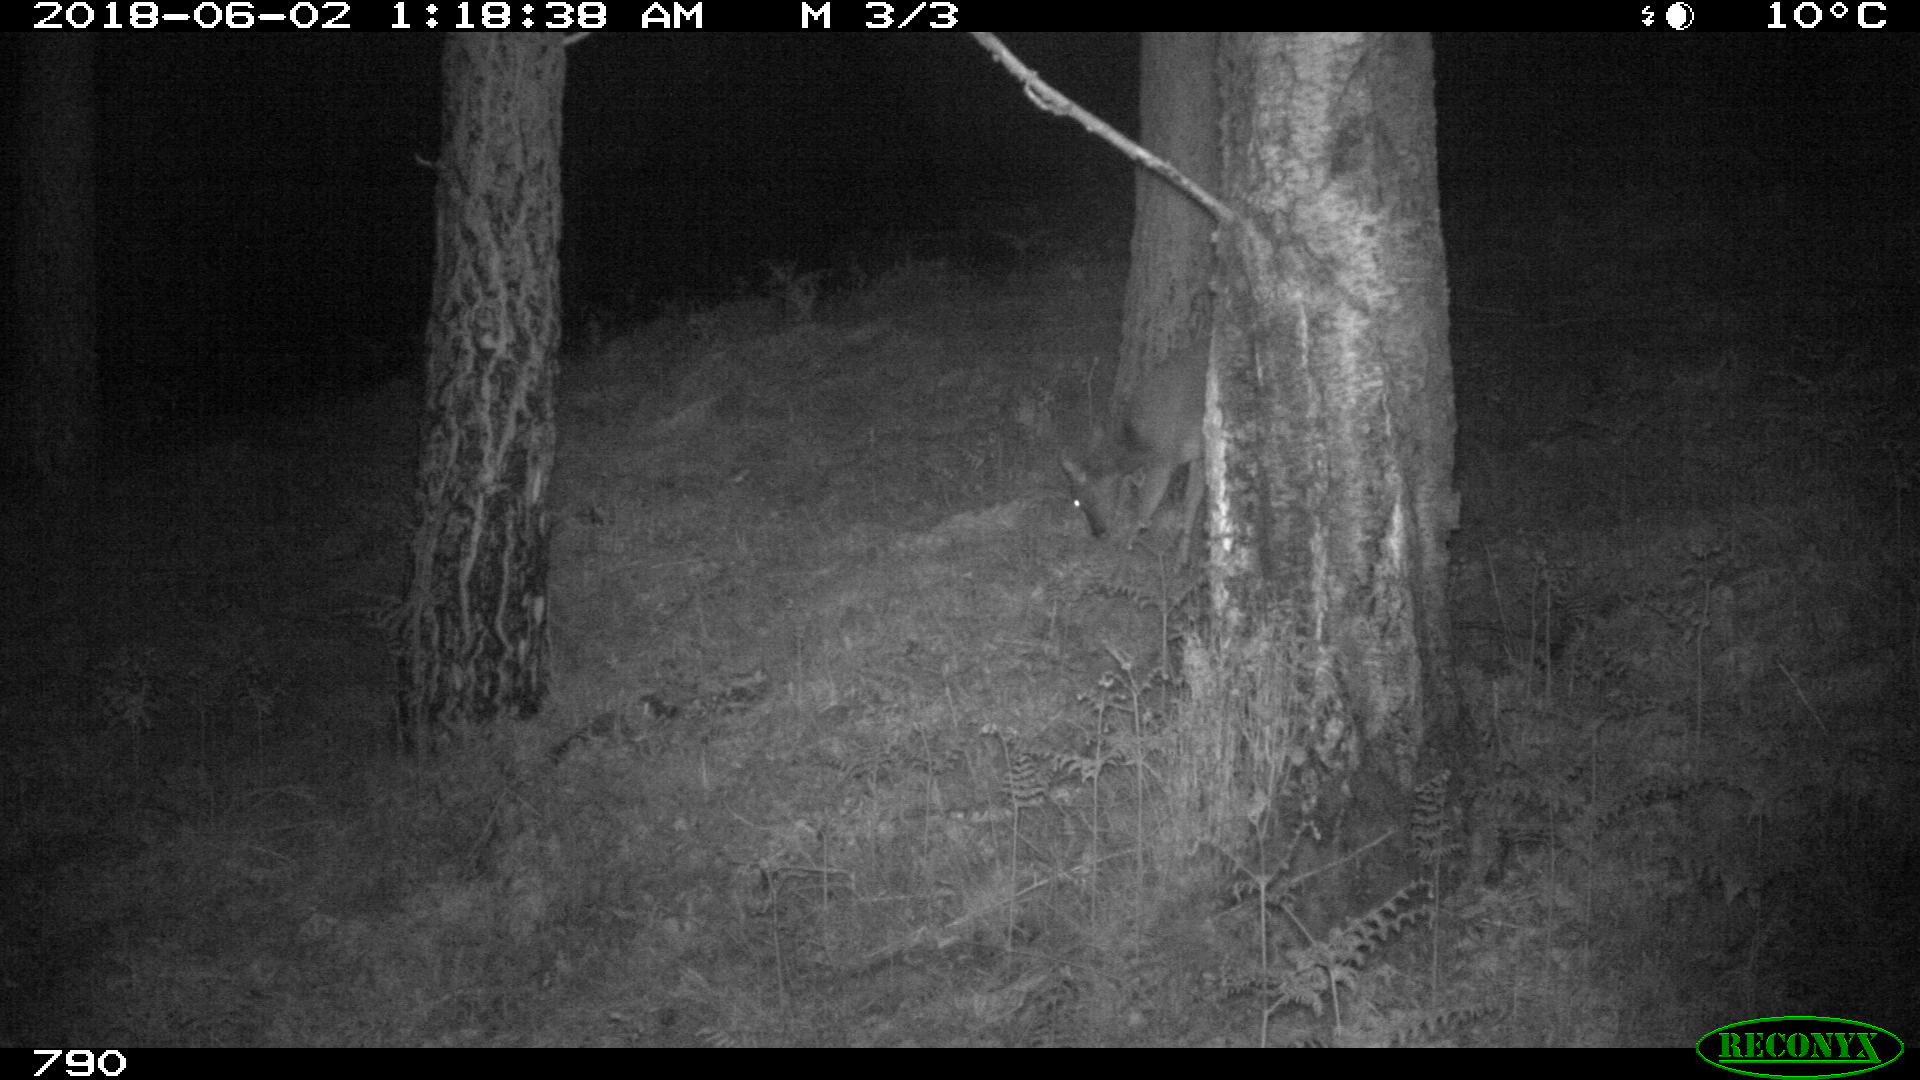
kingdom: Animalia
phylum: Chordata
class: Mammalia
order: Artiodactyla
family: Cervidae
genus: Capreolus
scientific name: Capreolus capreolus
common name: Western roe deer
